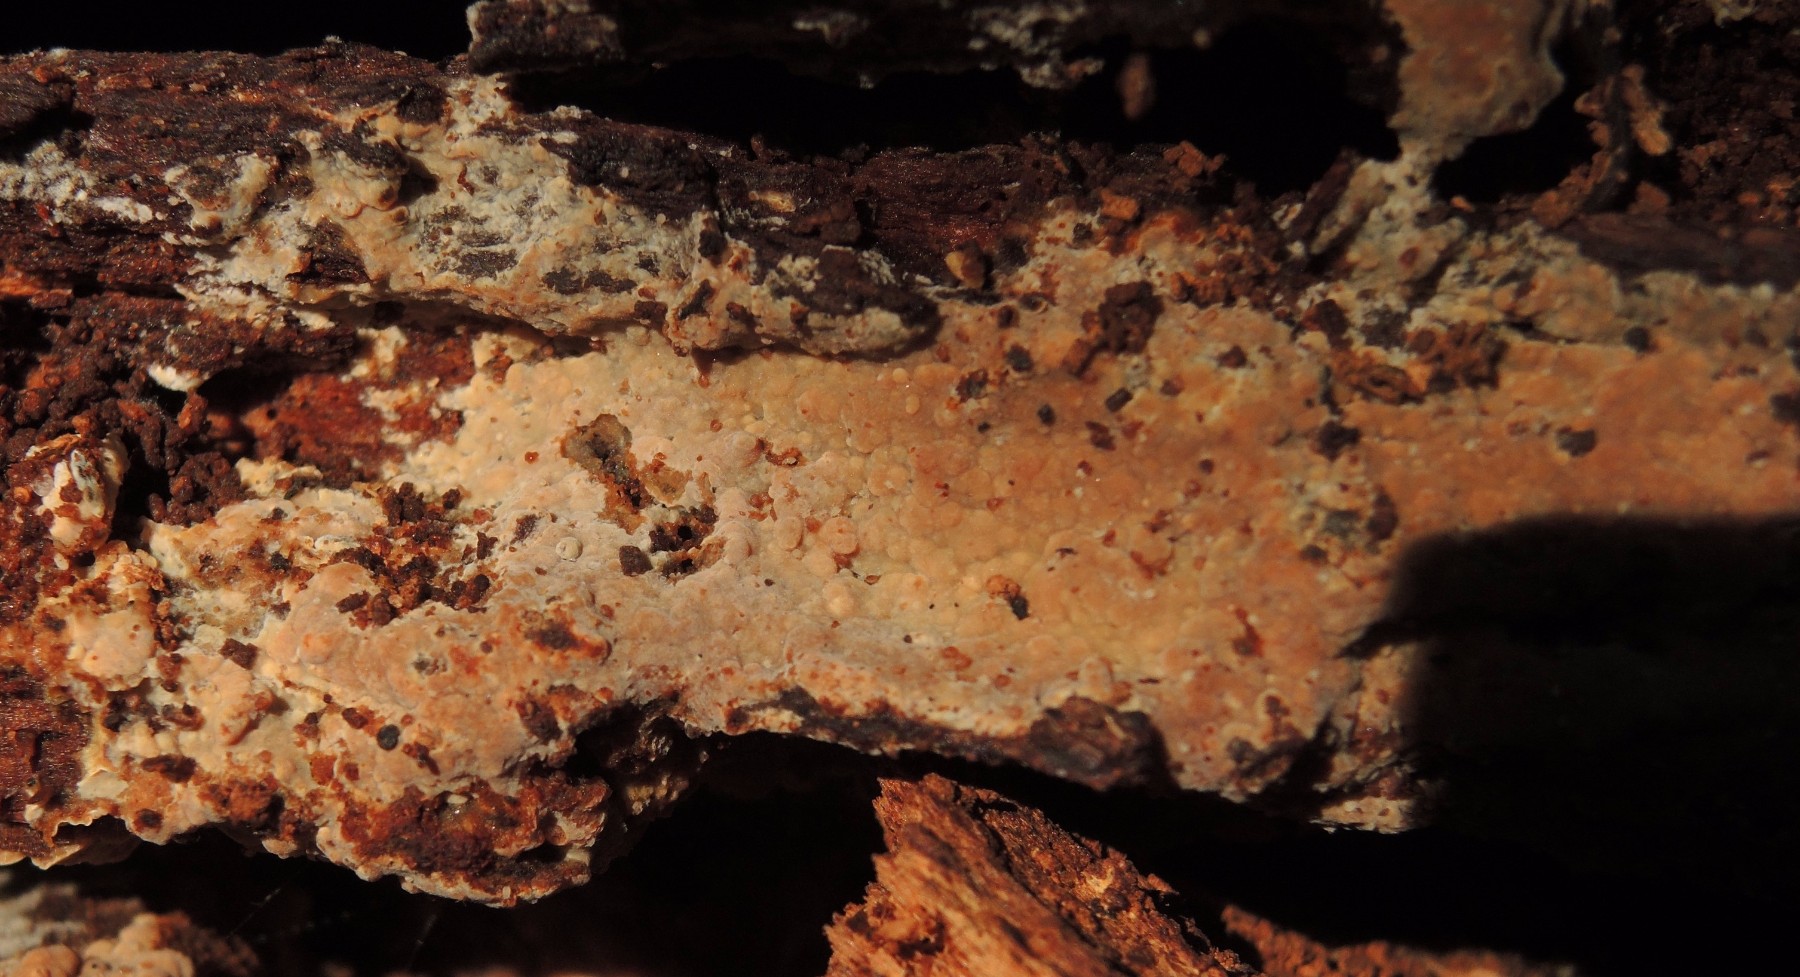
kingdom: Fungi
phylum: Basidiomycota
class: Agaricomycetes
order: Russulales
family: Peniophoraceae
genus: Gloiothele
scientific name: Gloiothele lactescens
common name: bitter olieskind
